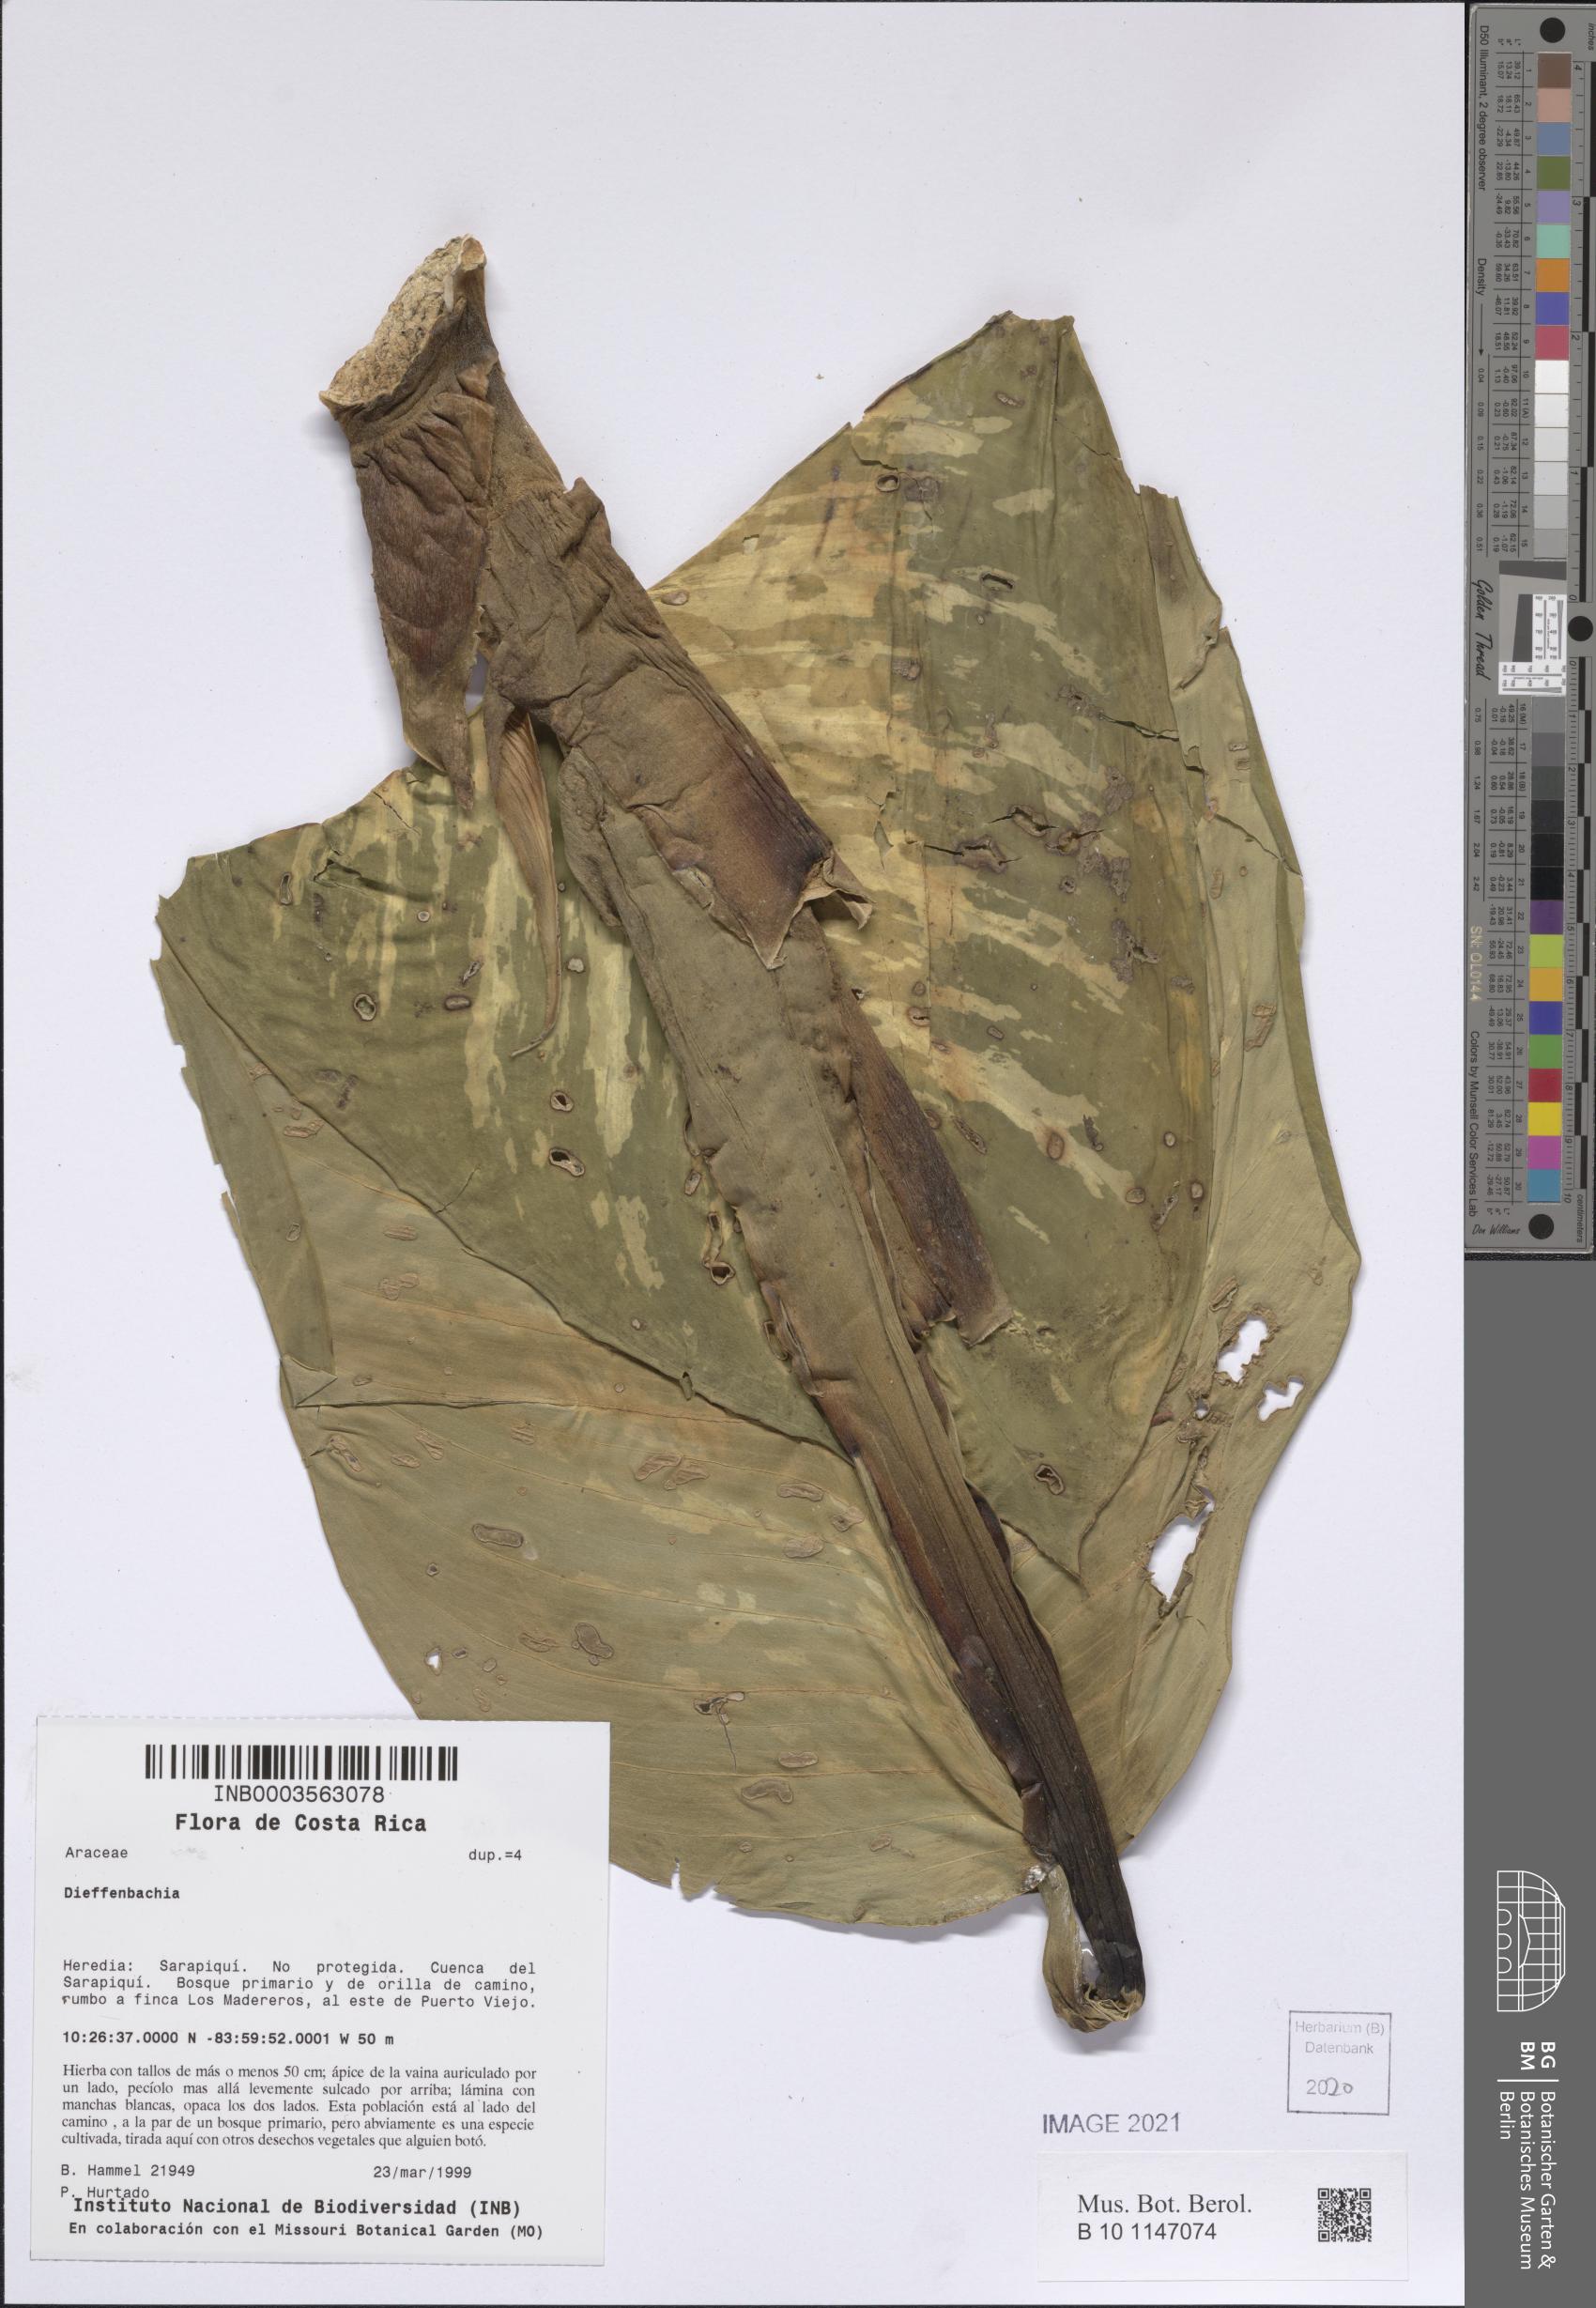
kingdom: Plantae
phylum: Tracheophyta
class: Liliopsida
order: Alismatales
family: Araceae
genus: Dieffenbachia
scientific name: Dieffenbachia
